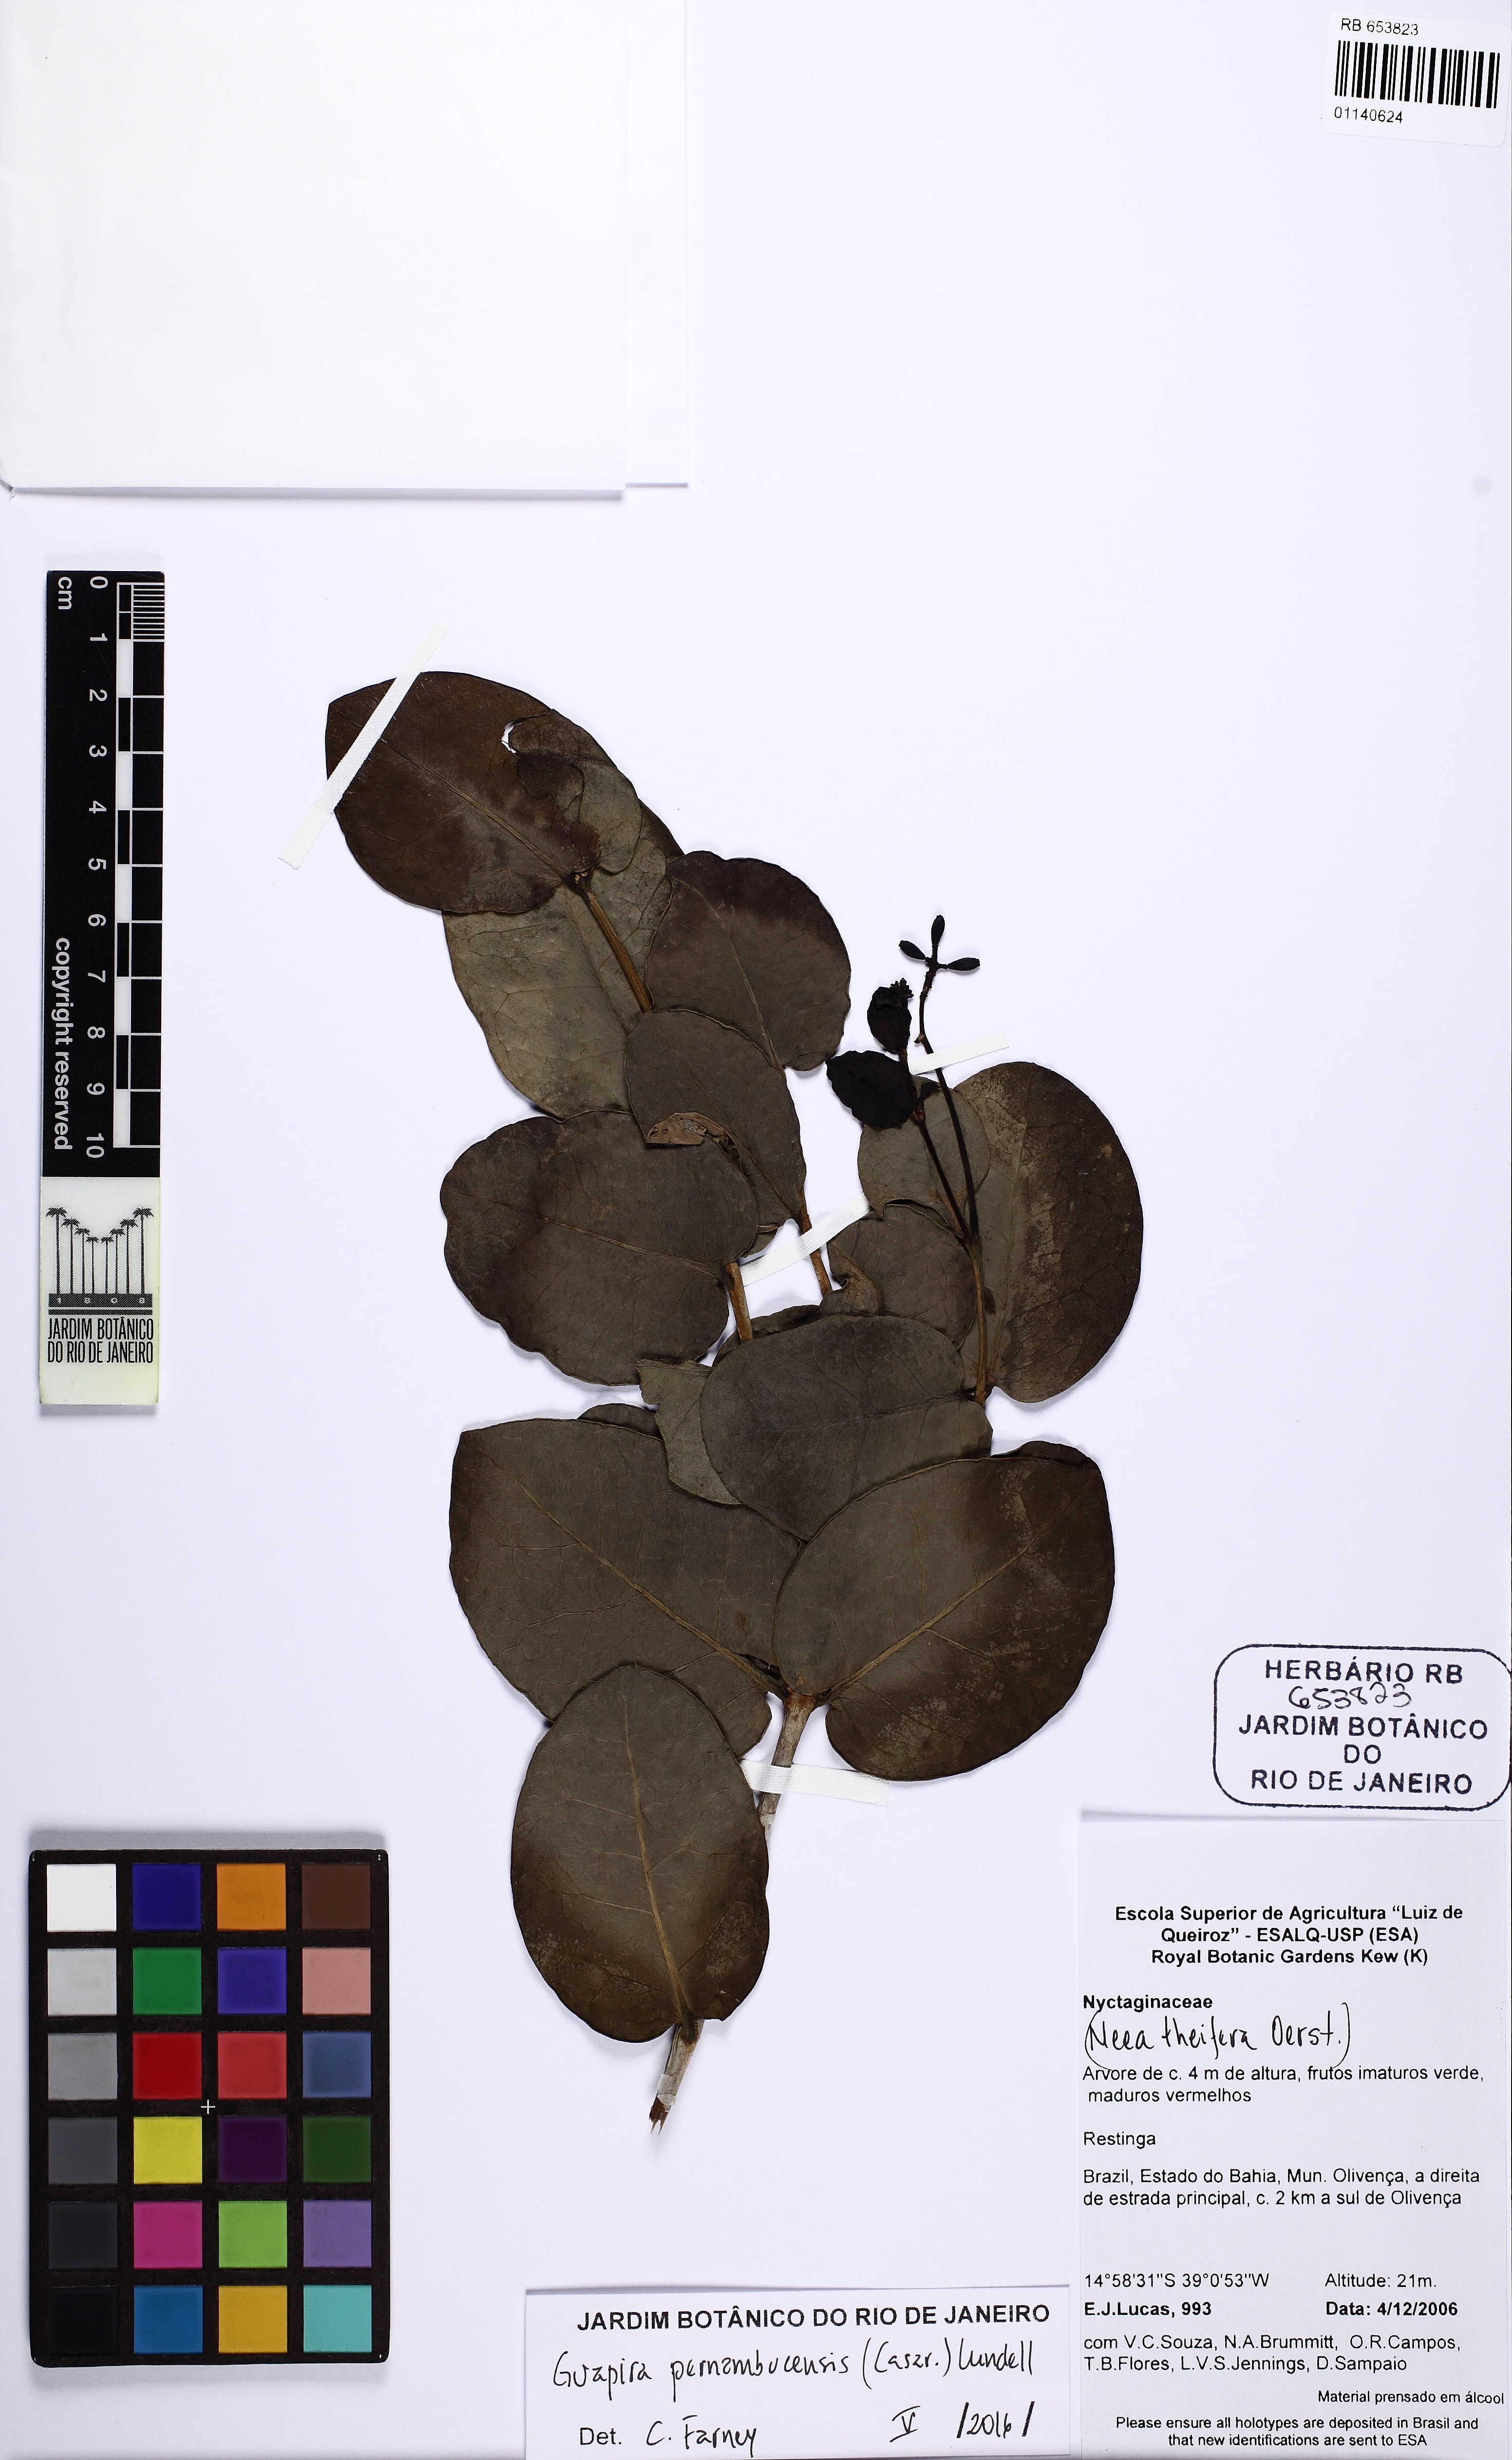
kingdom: Plantae
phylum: Tracheophyta
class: Magnoliopsida
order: Caryophyllales
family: Nyctaginaceae
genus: Guapira
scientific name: Guapira pernambucensis
